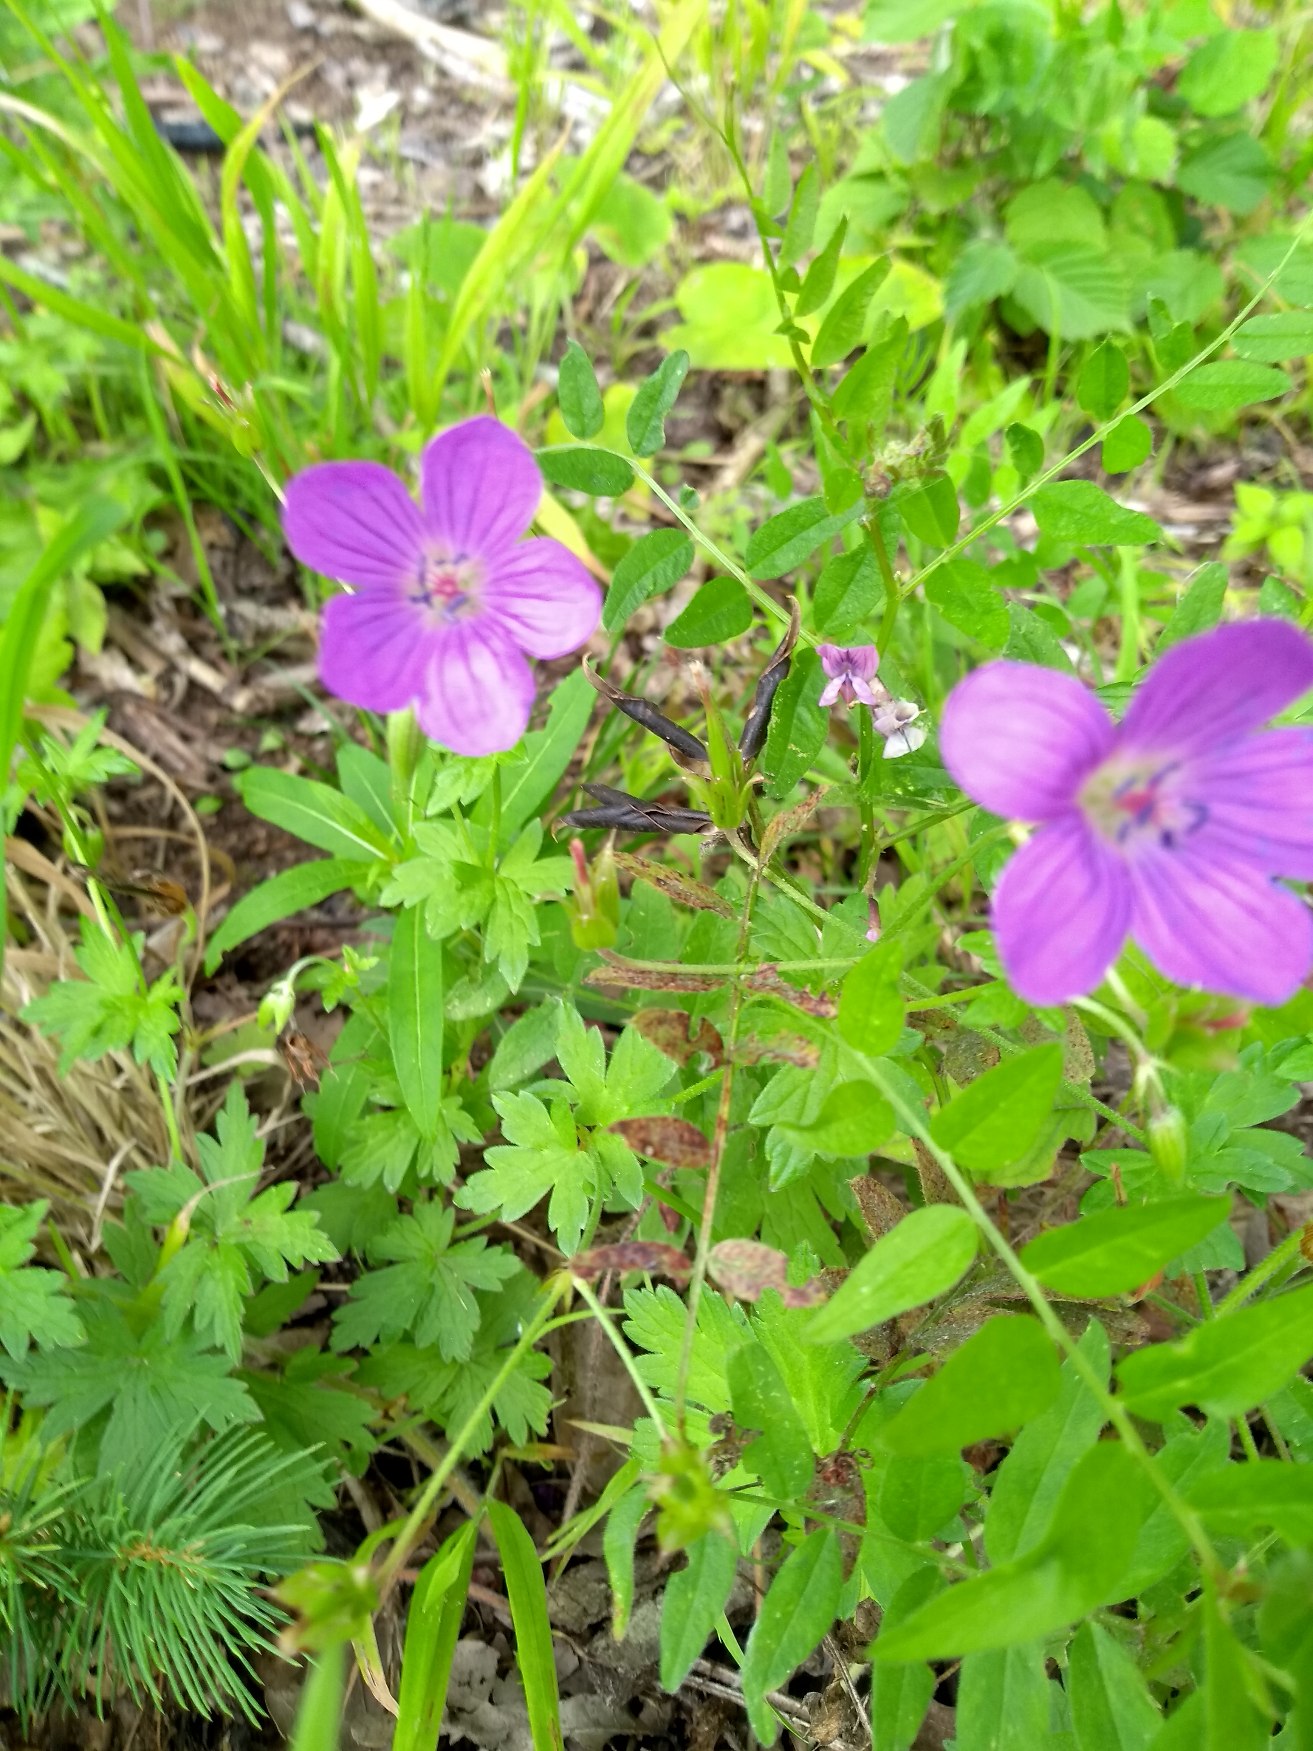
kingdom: Plantae
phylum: Tracheophyta
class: Magnoliopsida
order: Geraniales
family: Geraniaceae
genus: Geranium
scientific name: Geranium palustre
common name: Kær-storkenæb
